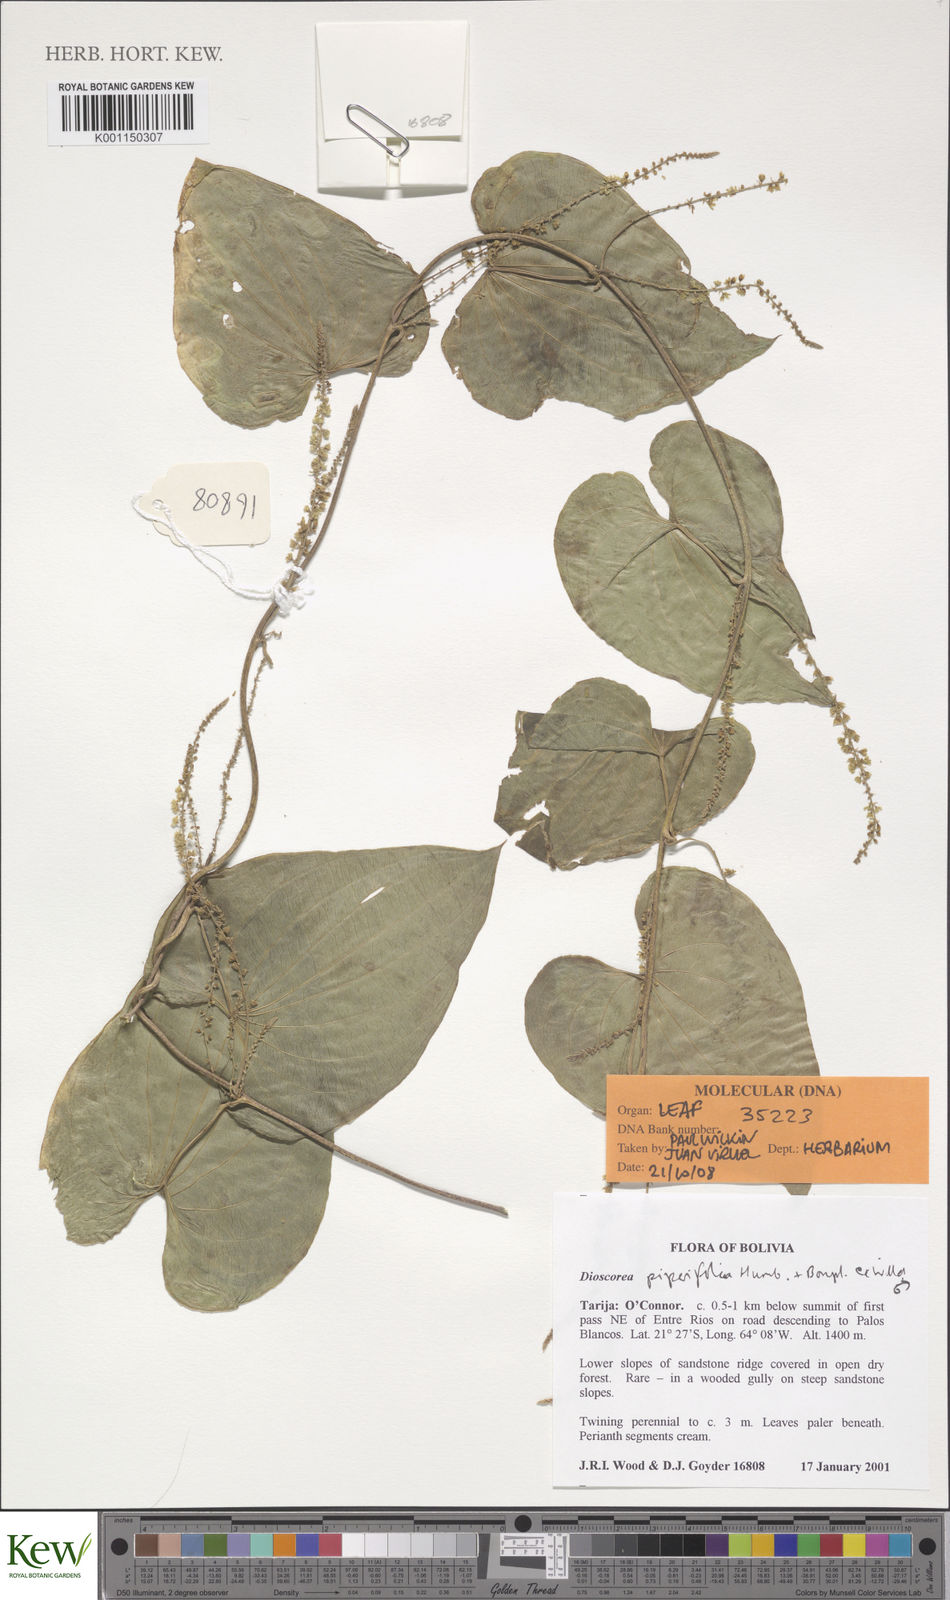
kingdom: Plantae
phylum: Tracheophyta
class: Liliopsida
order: Dioscoreales
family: Dioscoreaceae
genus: Dioscorea
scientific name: Dioscorea piperifolia
